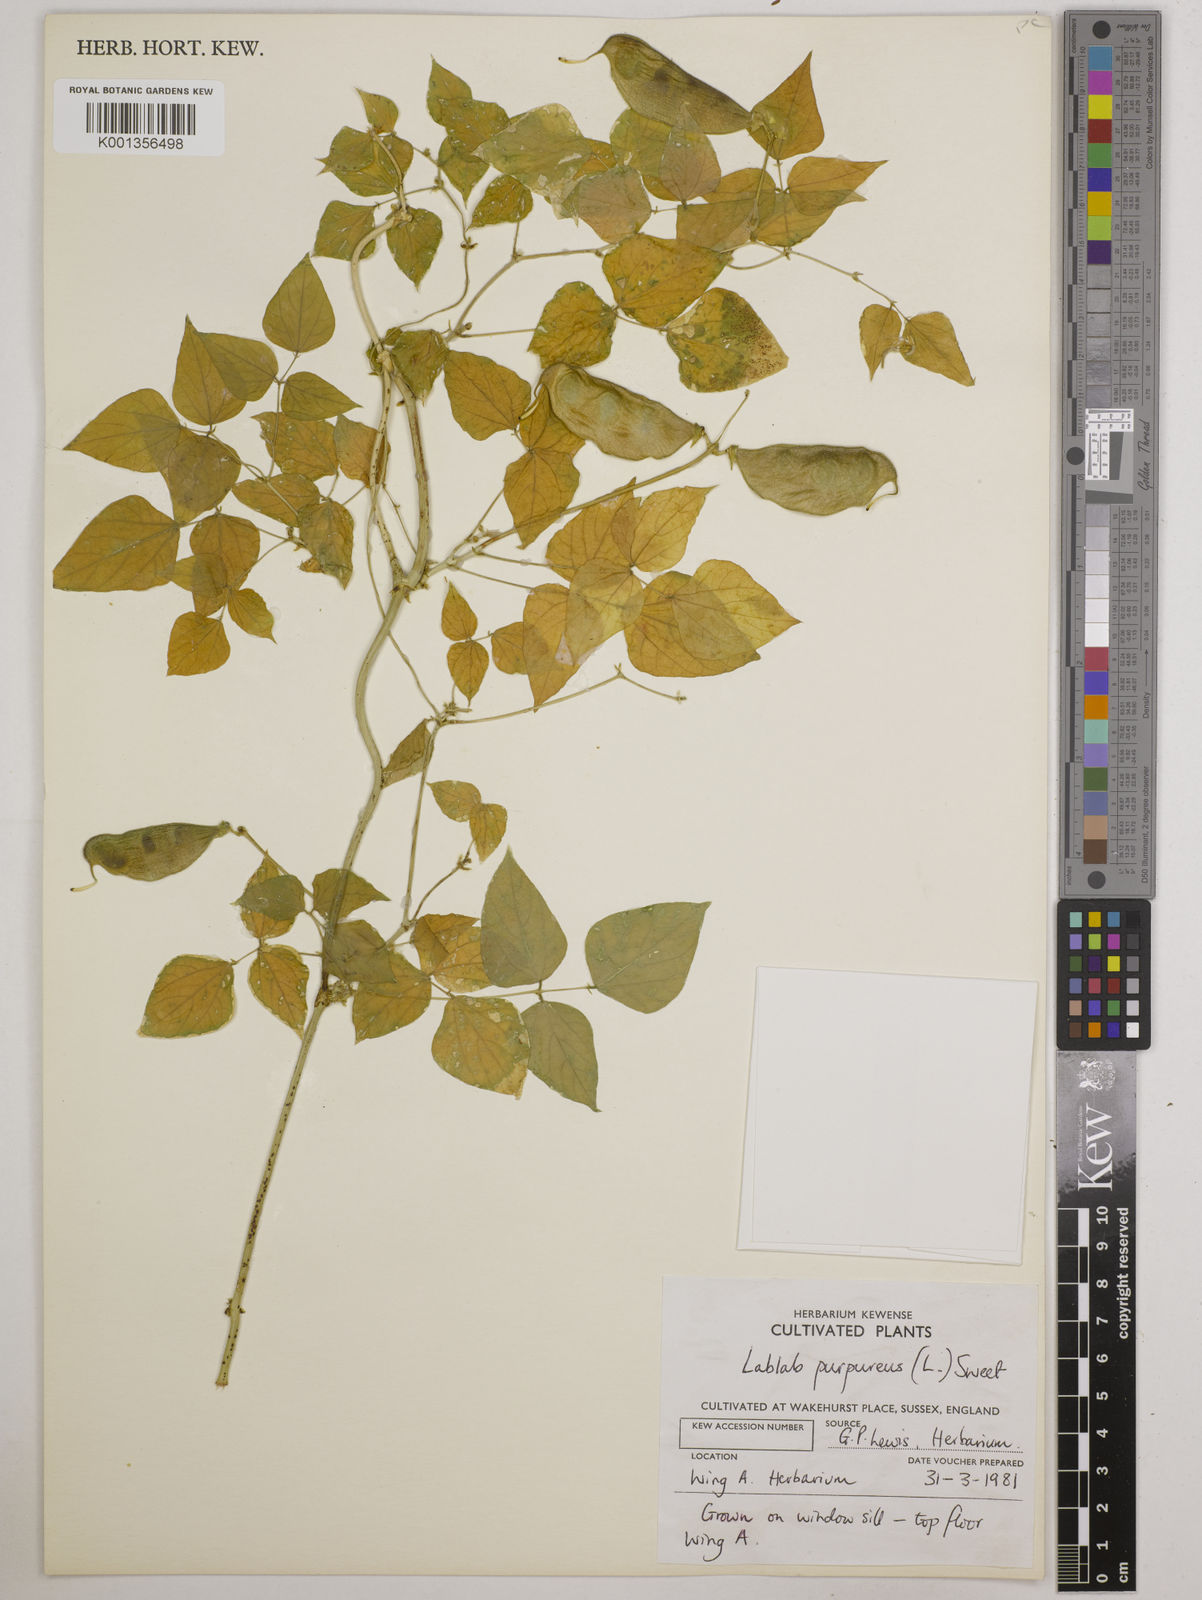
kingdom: Plantae
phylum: Tracheophyta
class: Magnoliopsida
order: Fabales
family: Fabaceae
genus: Lablab
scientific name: Lablab purpureus
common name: Lablab-bean
